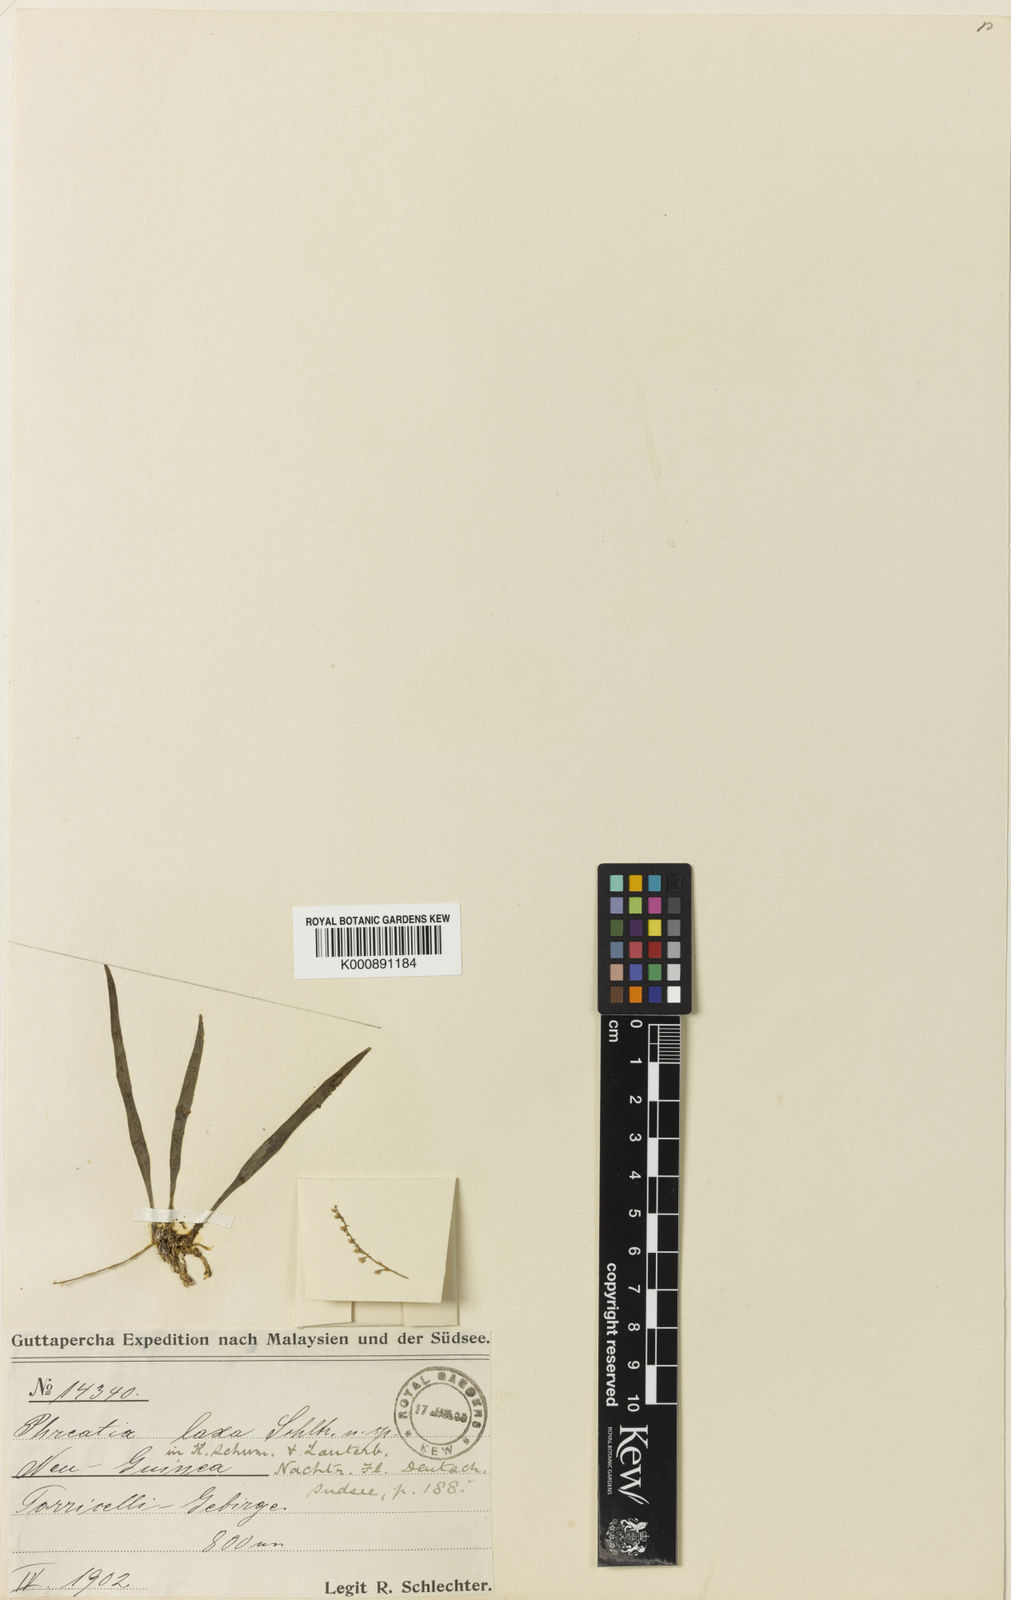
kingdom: Plantae
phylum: Tracheophyta
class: Liliopsida
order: Asparagales
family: Orchidaceae
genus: Phreatia
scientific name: Phreatia laxa
